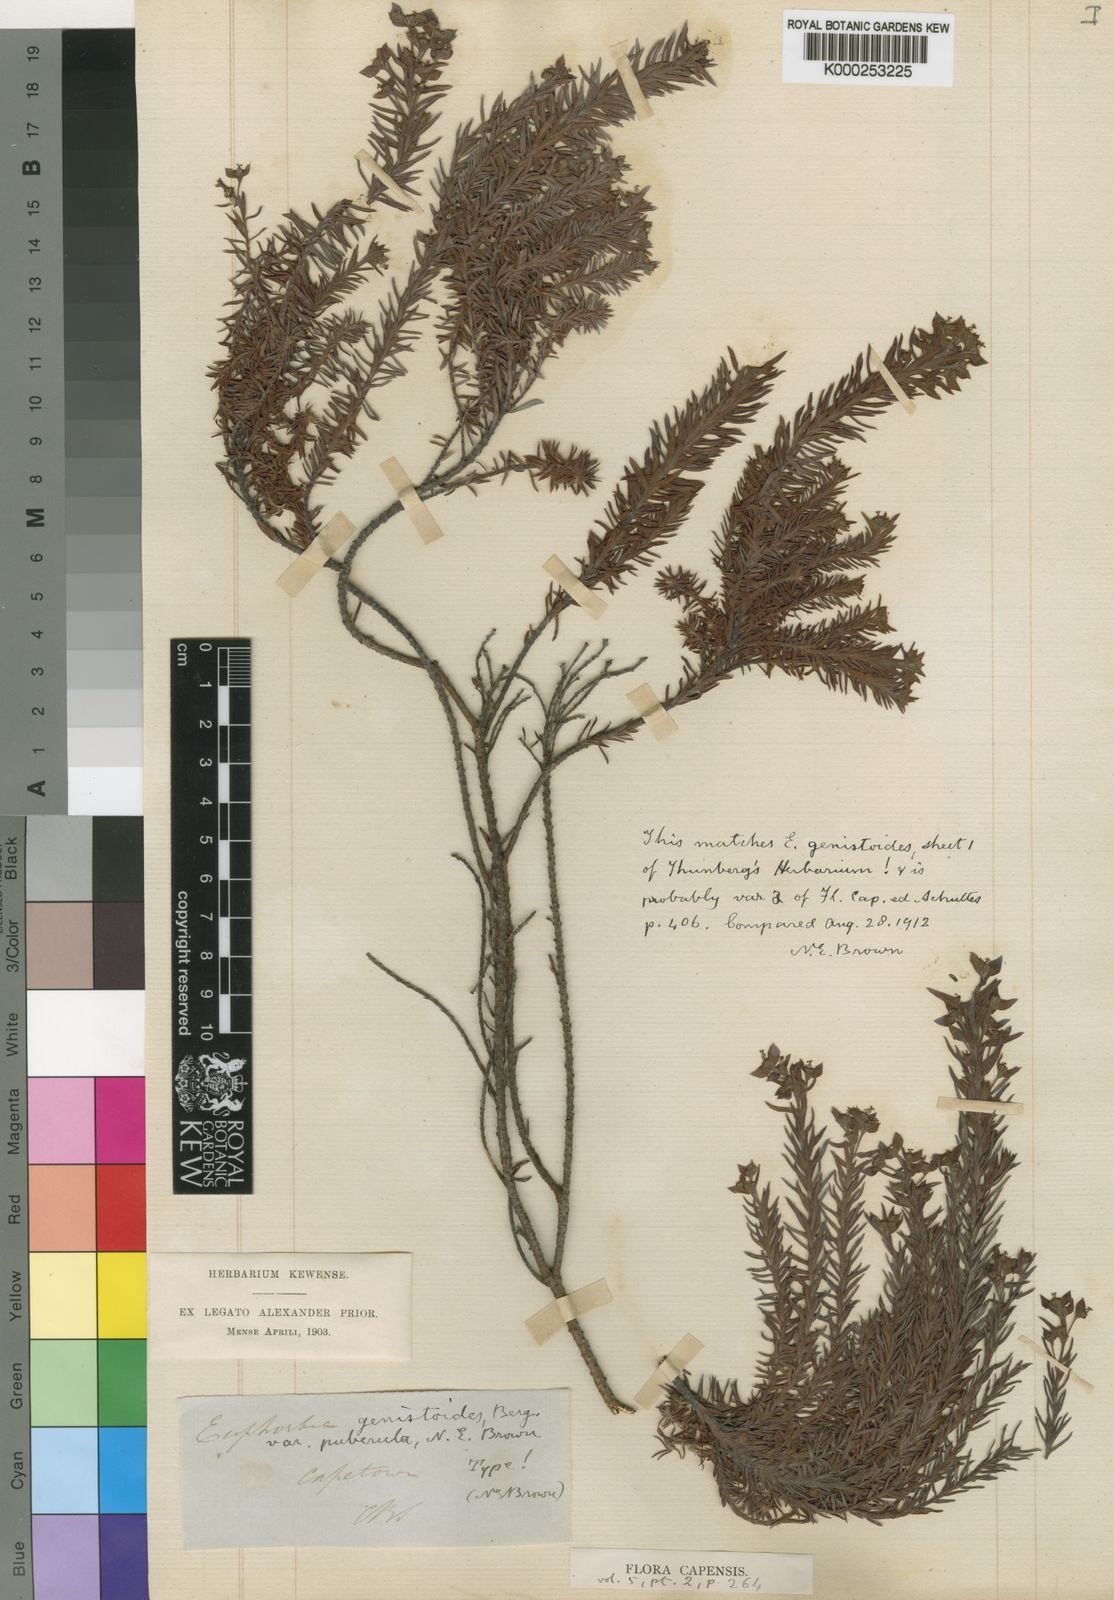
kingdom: Plantae
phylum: Tracheophyta
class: Magnoliopsida
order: Malpighiales
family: Euphorbiaceae
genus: Euphorbia
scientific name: Euphorbia genistoides
